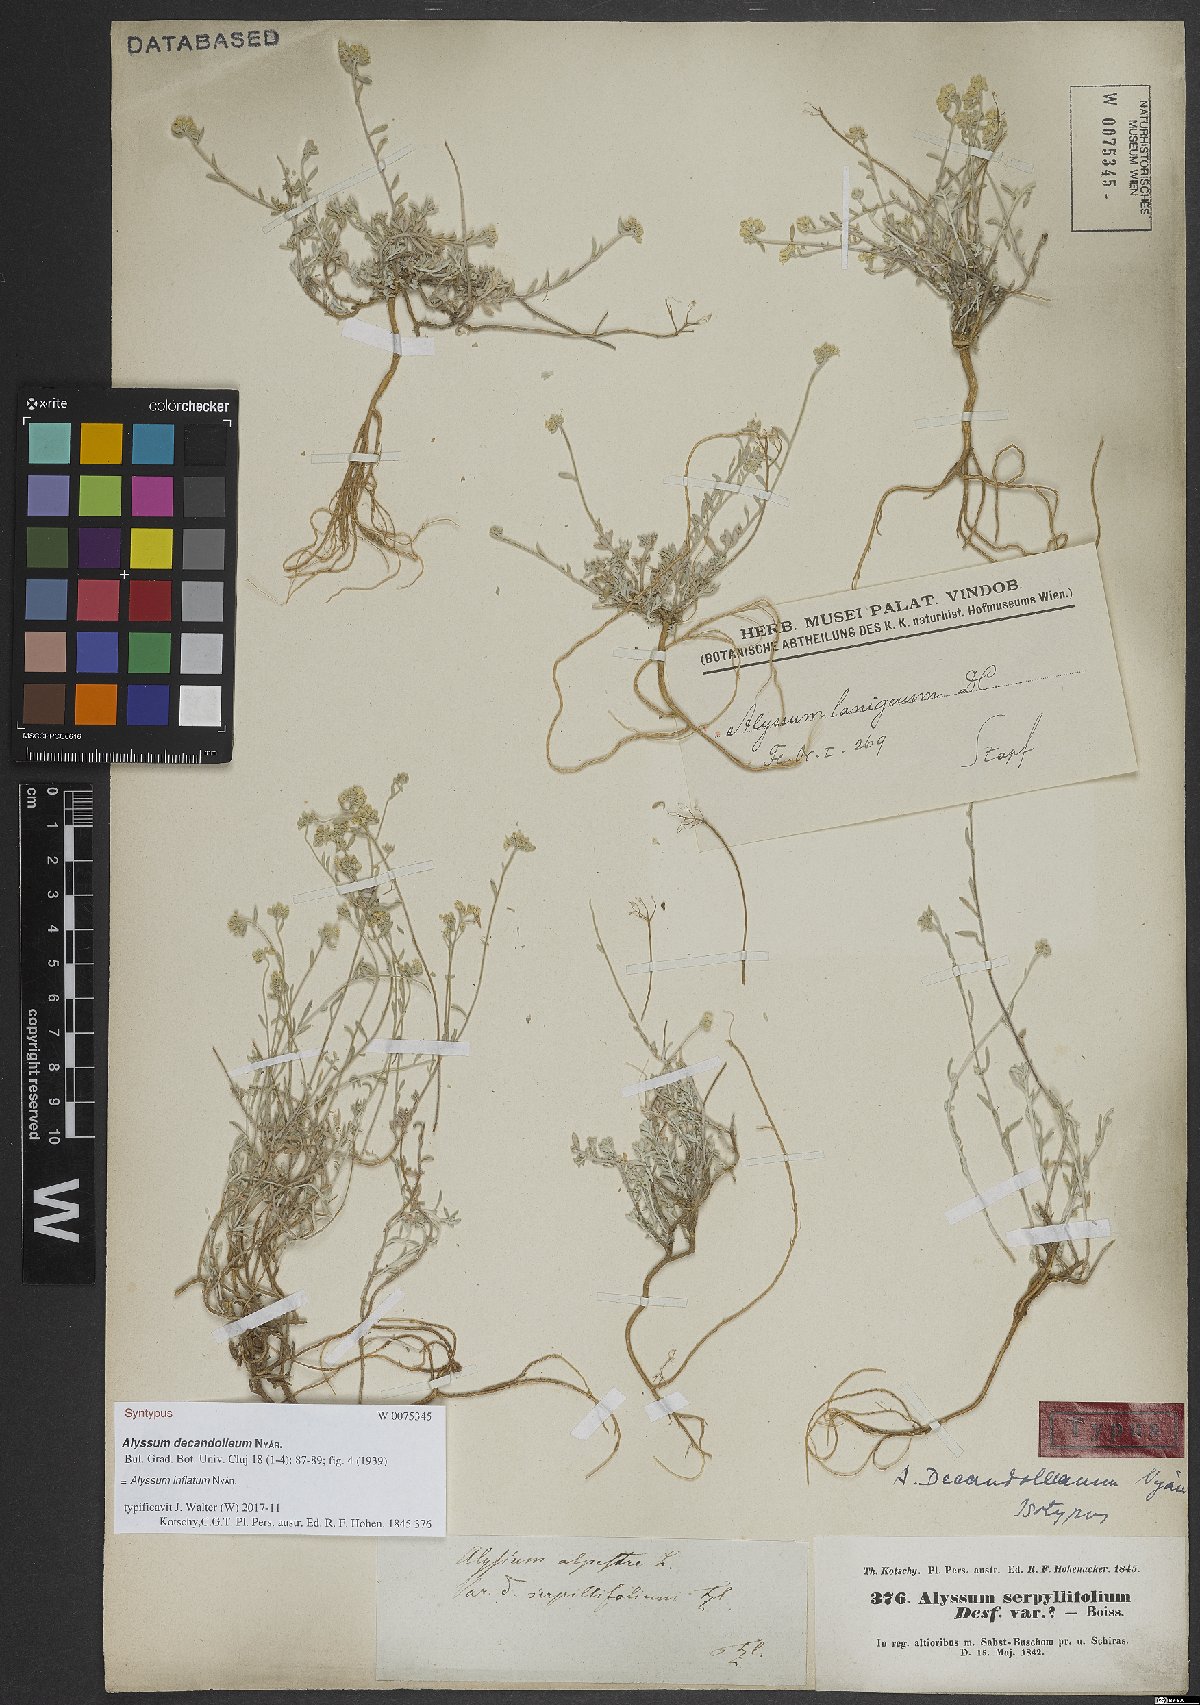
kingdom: Plantae
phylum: Tracheophyta
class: Magnoliopsida
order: Brassicales
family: Brassicaceae
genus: Odontarrhena
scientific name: Odontarrhena inflata
